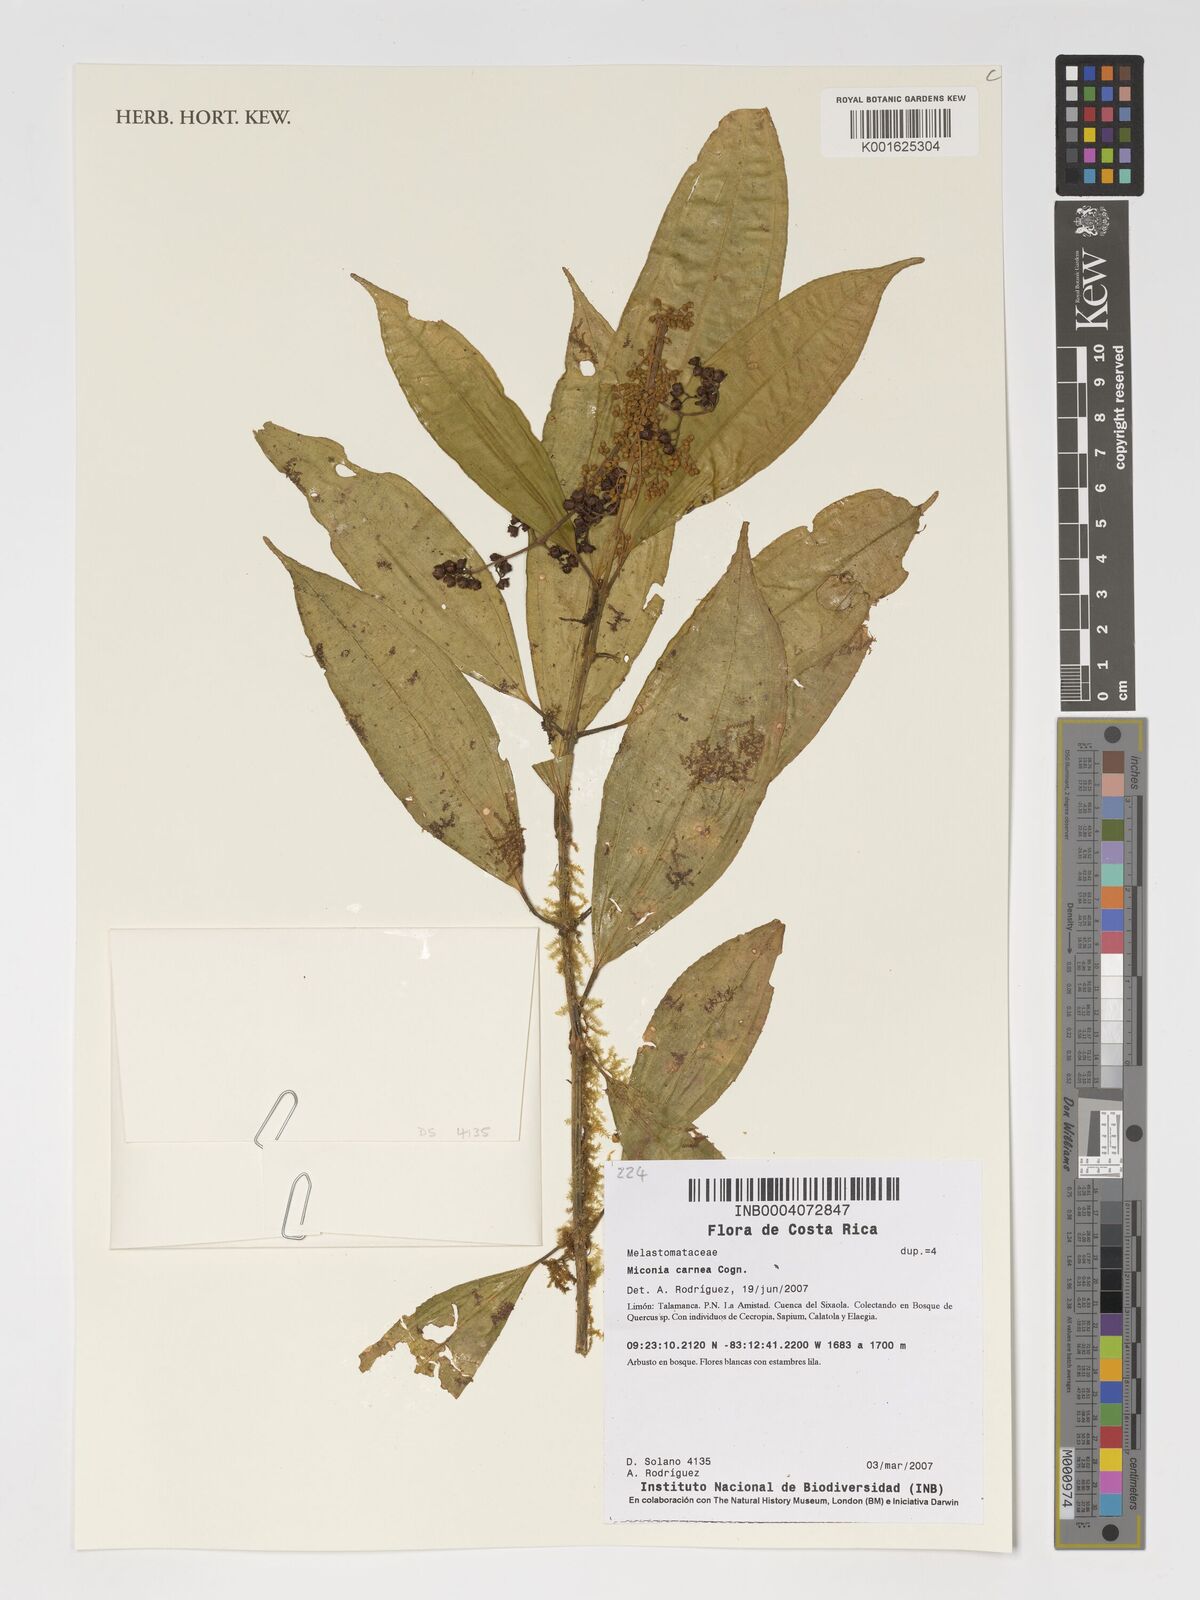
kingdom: Plantae
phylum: Tracheophyta
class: Magnoliopsida
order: Myrtales
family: Melastomataceae
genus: Miconia
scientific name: Miconia carnea
